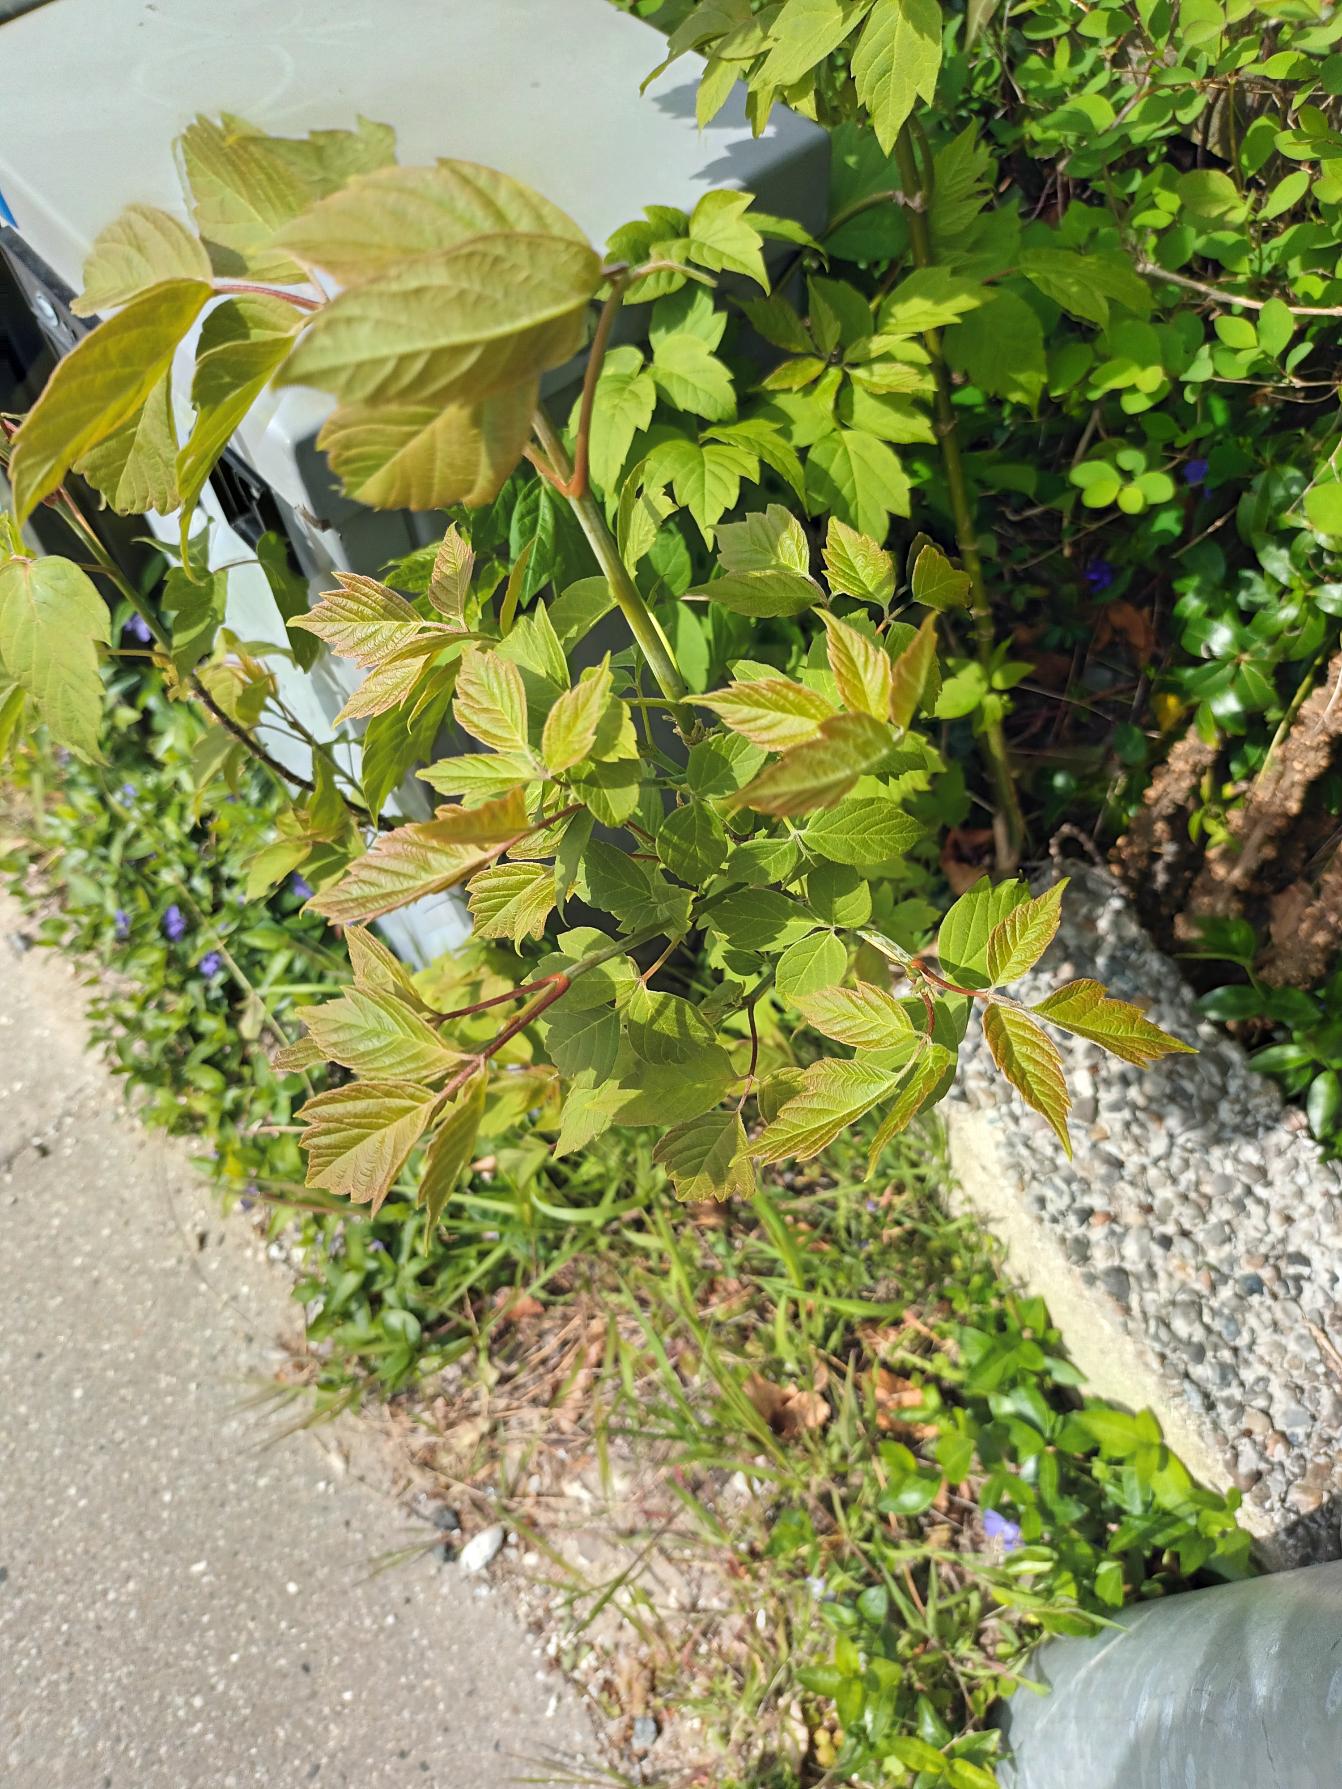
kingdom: Plantae
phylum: Tracheophyta
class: Magnoliopsida
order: Sapindales
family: Sapindaceae
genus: Acer
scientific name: Acer negundo
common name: Askebladet løn
